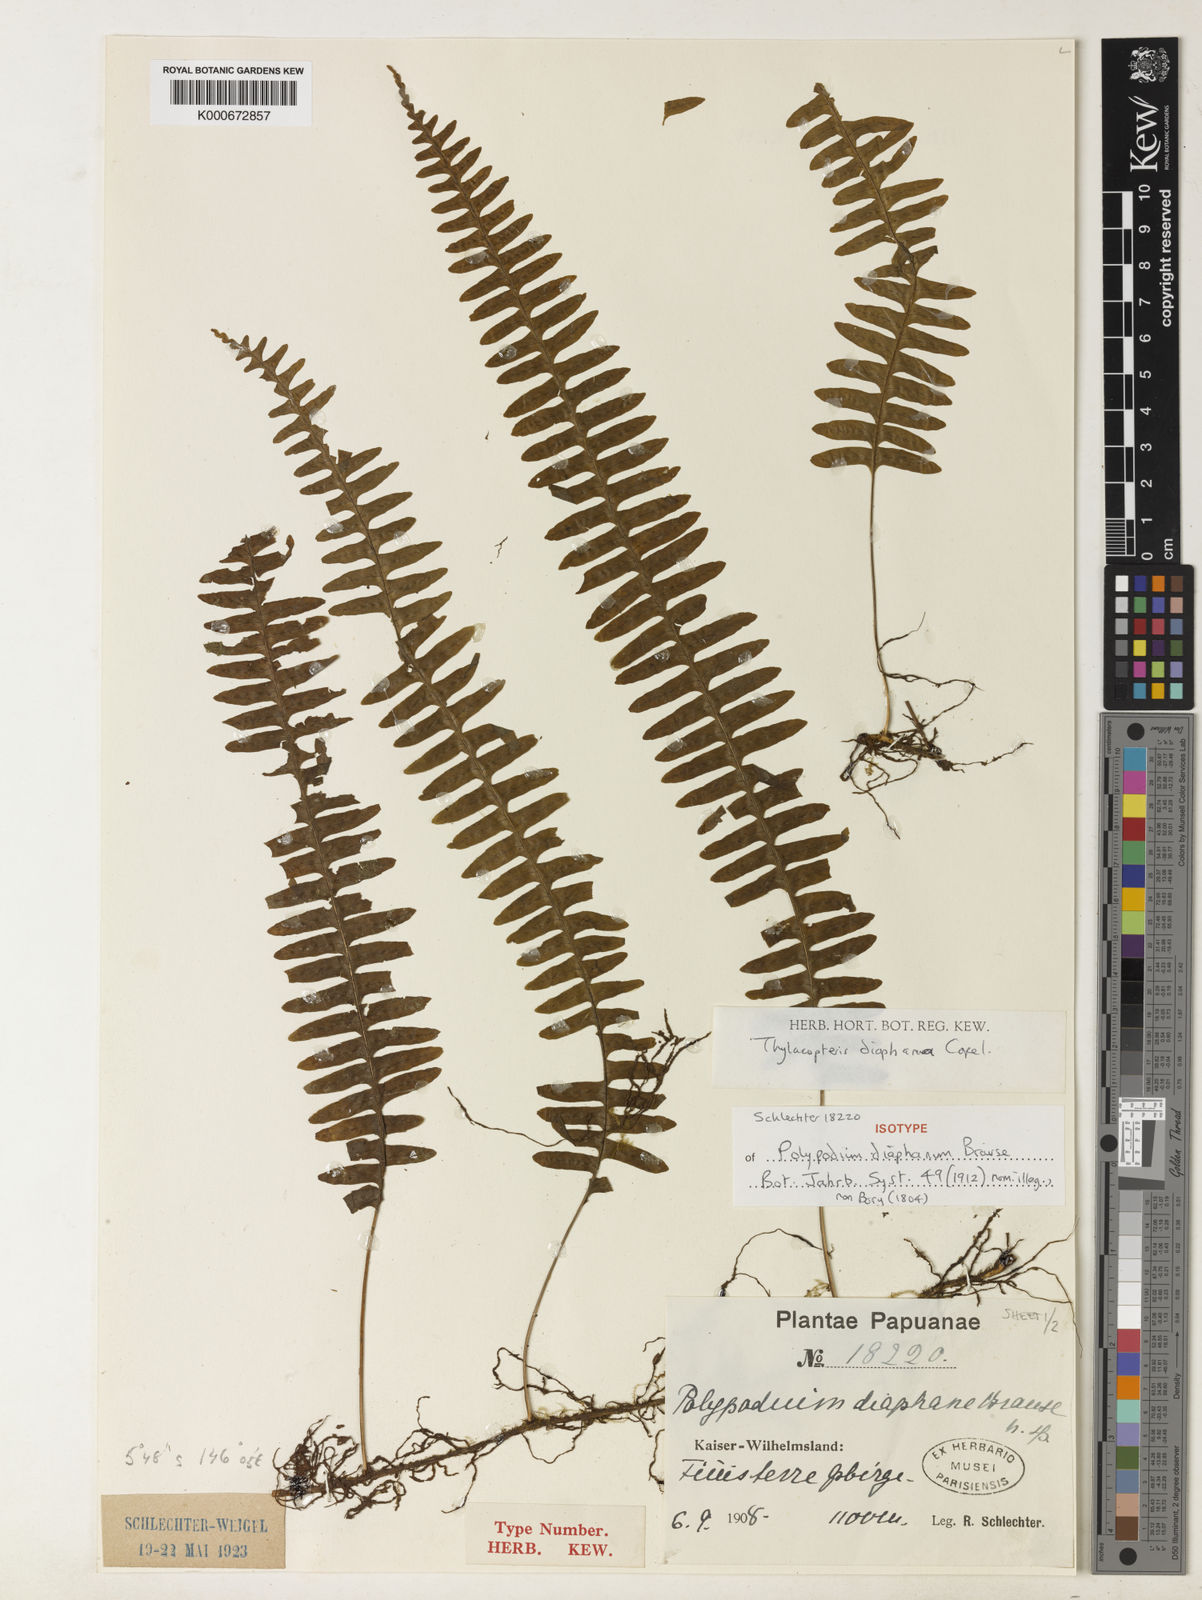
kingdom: Plantae
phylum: Tracheophyta
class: Polypodiopsida
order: Polypodiales
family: Polypodiaceae
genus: Thylacopteris
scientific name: Thylacopteris diaphana
